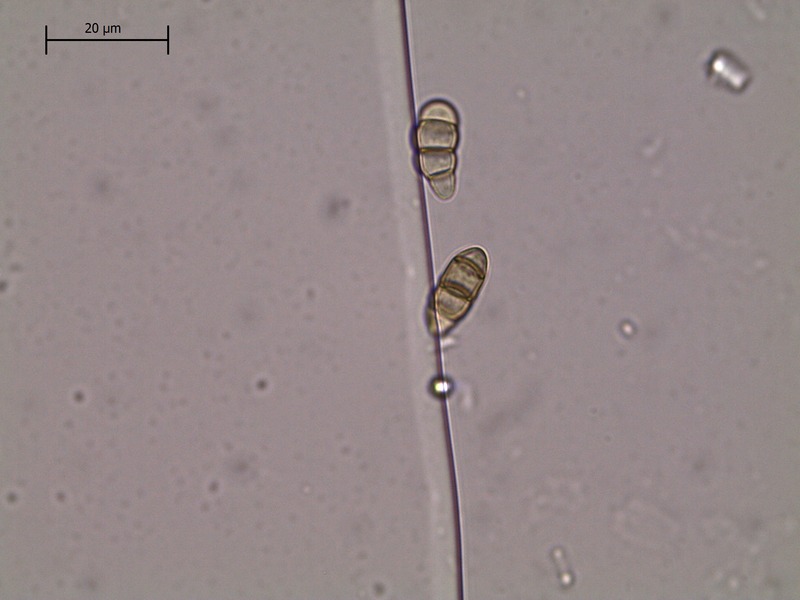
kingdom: Fungi
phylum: Ascomycota
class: Dothideomycetes
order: Mycosphaerellales
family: Mycosphaerellaceae
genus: Stigmina
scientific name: Stigmina carpophila
